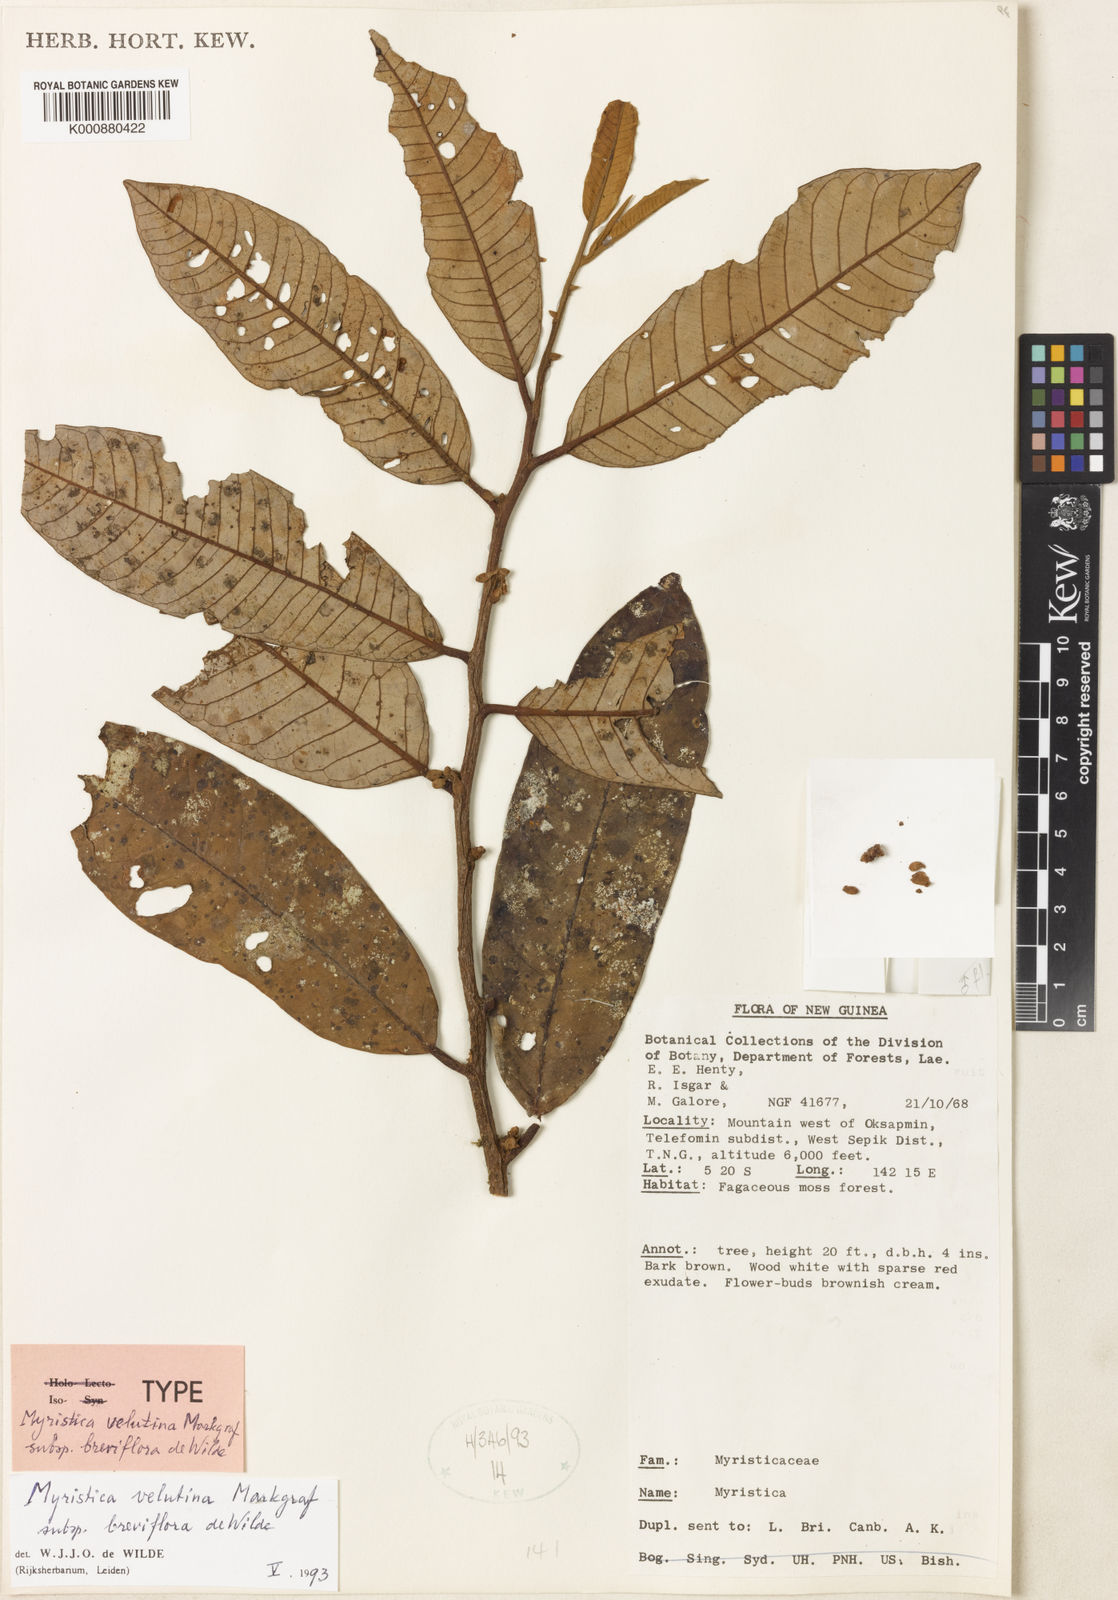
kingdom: Plantae
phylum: Tracheophyta
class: Magnoliopsida
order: Magnoliales
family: Myristicaceae
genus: Myristica
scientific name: Myristica velutina
